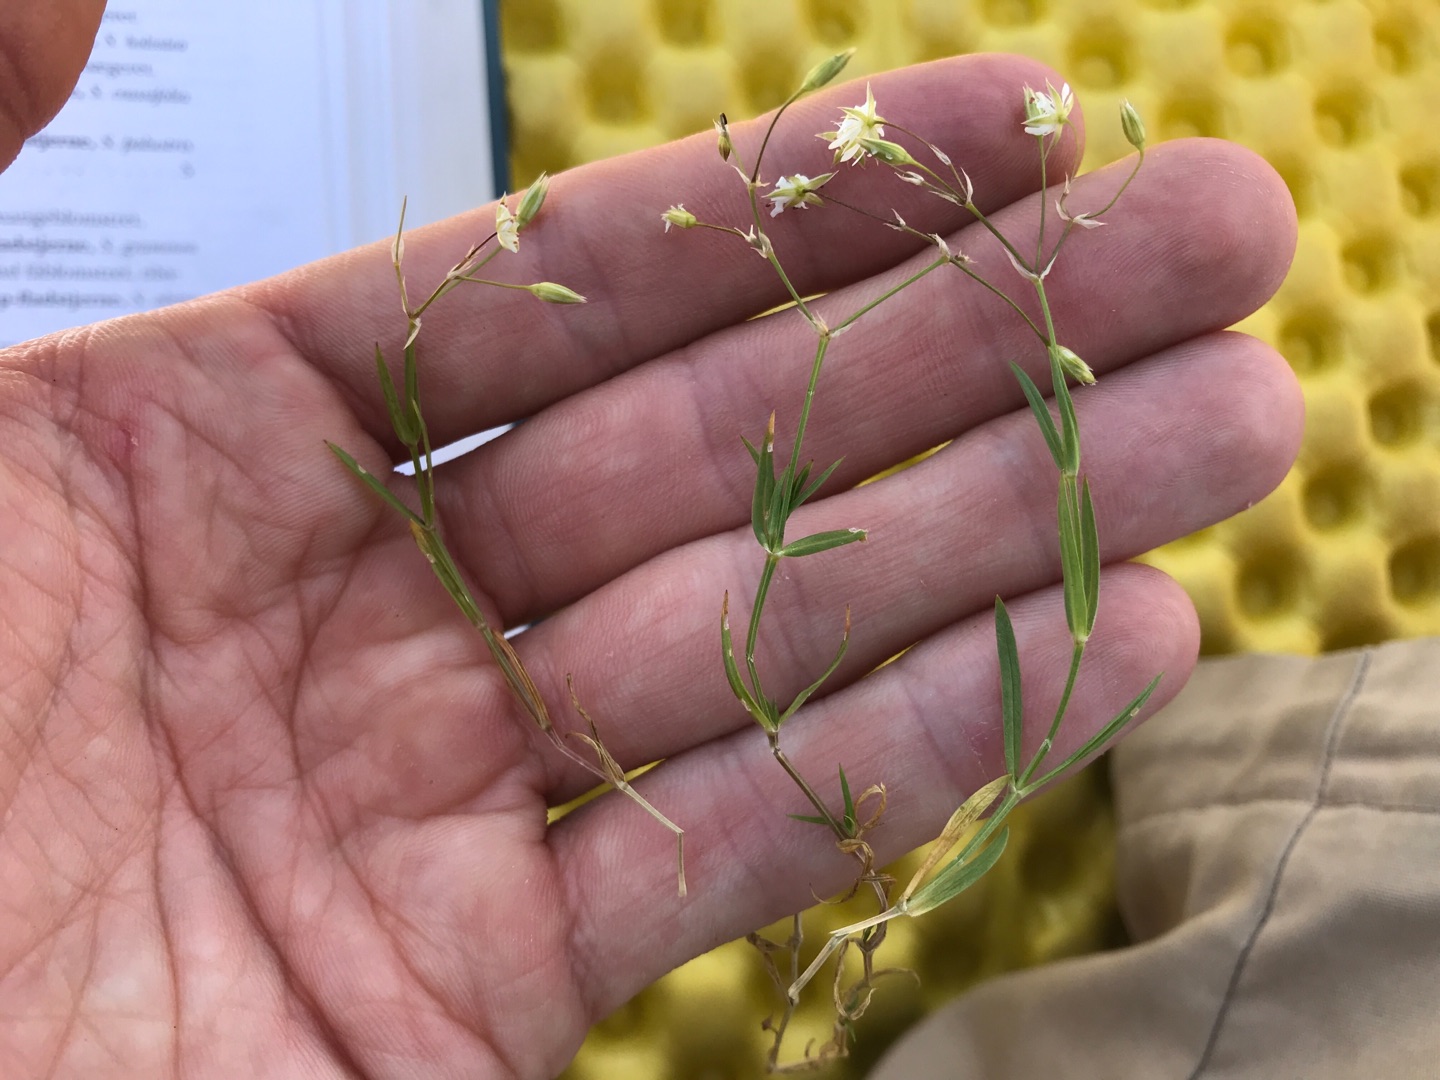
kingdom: Plantae
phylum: Tracheophyta
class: Magnoliopsida
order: Caryophyllales
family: Caryophyllaceae
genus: Stellaria
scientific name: Stellaria graminea
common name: Græsbladet fladstjerne
